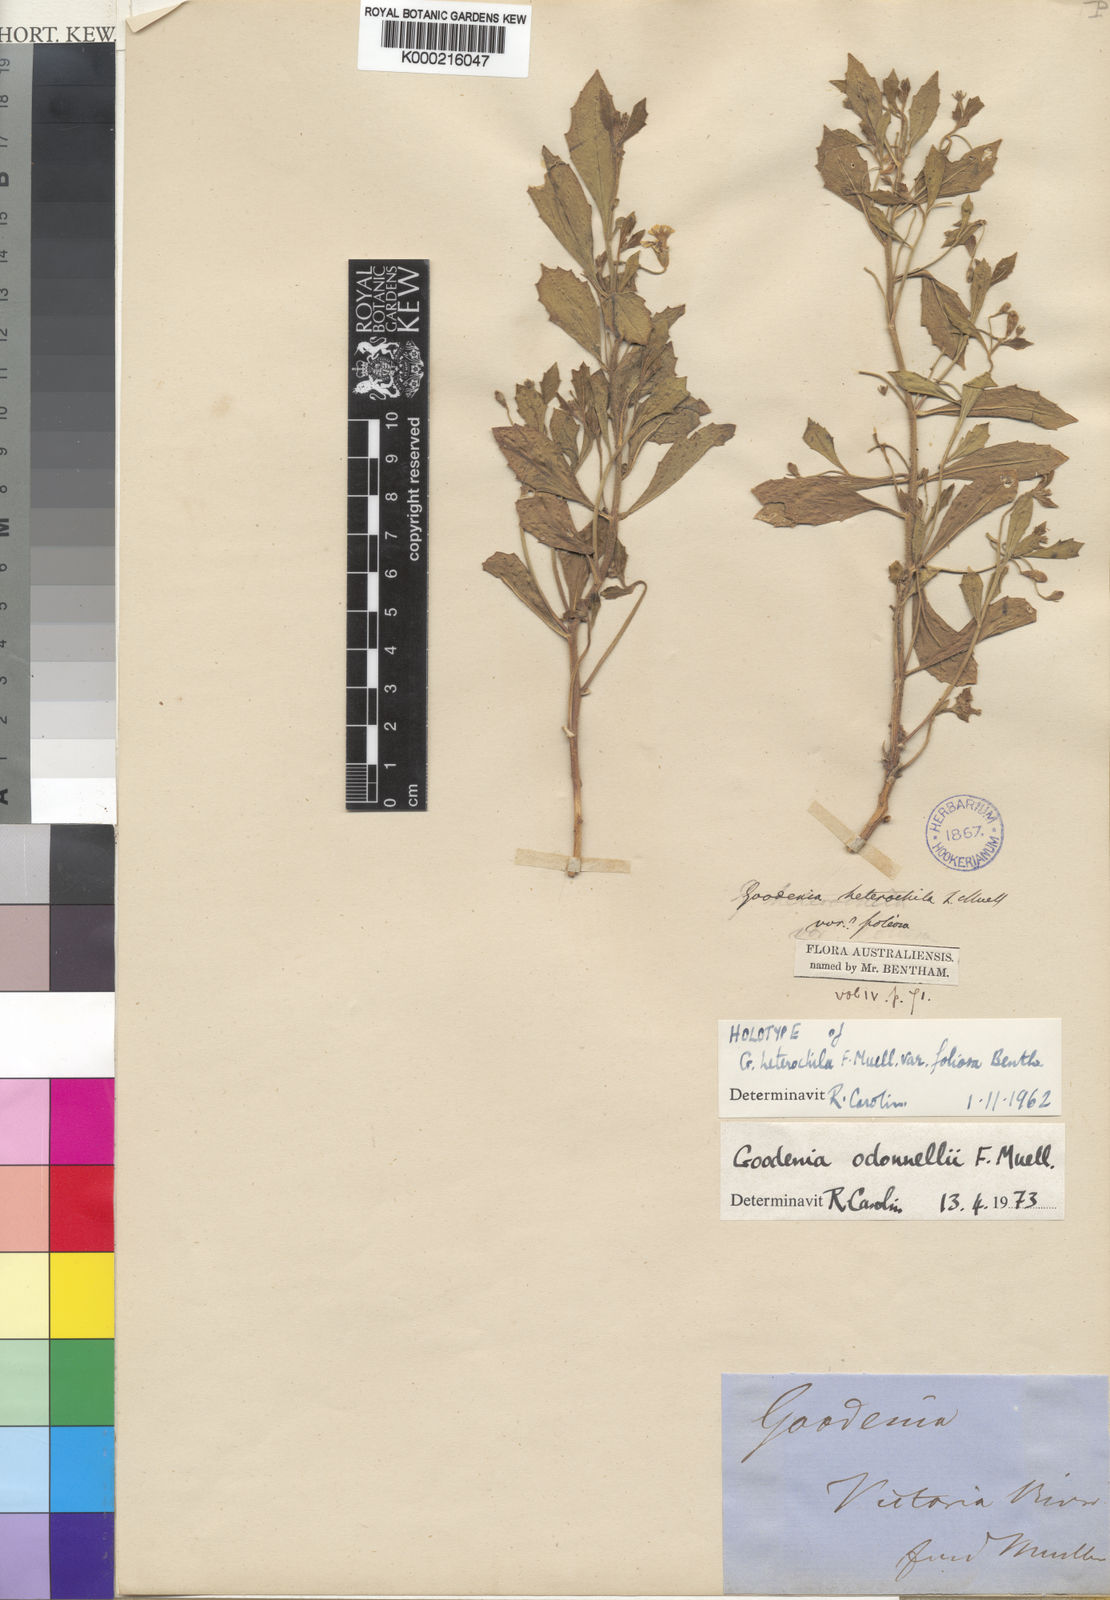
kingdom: Plantae
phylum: Tracheophyta
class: Magnoliopsida
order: Asterales
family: Goodeniaceae
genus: Goodenia
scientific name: Goodenia odonnellii
